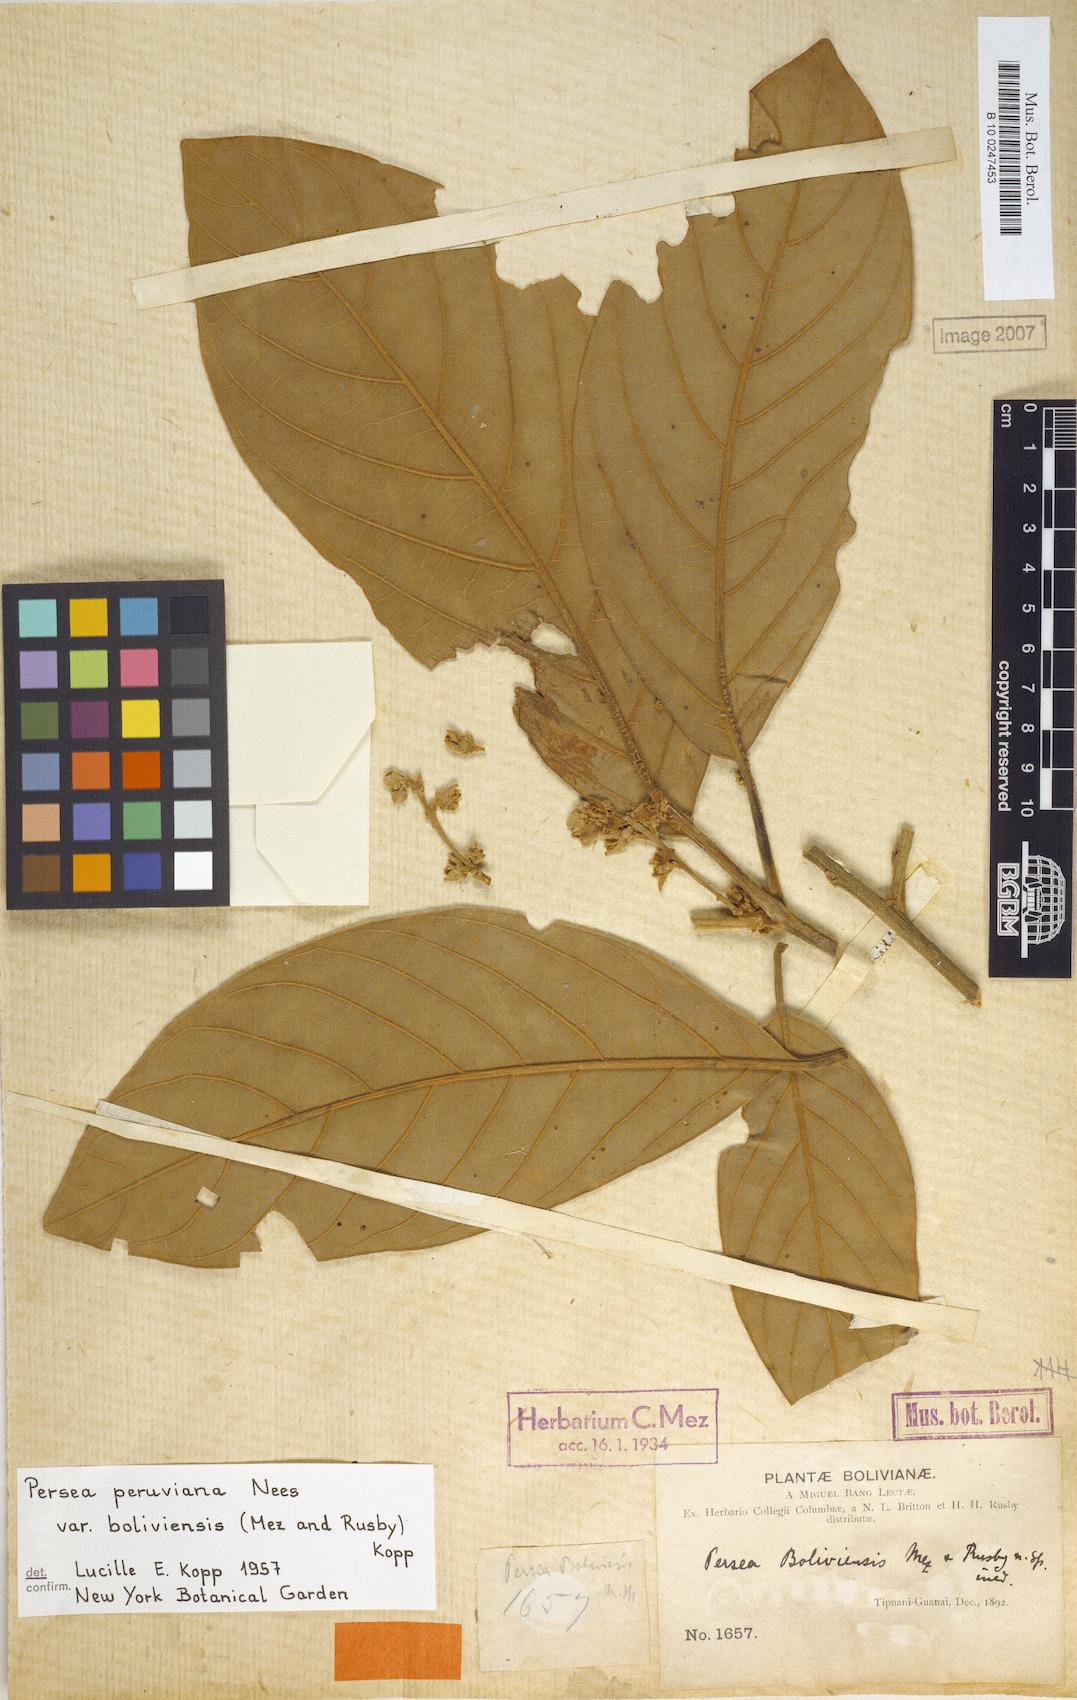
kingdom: Plantae
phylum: Tracheophyta
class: Magnoliopsida
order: Laurales
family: Lauraceae
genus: Persea
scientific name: Persea peruviana
